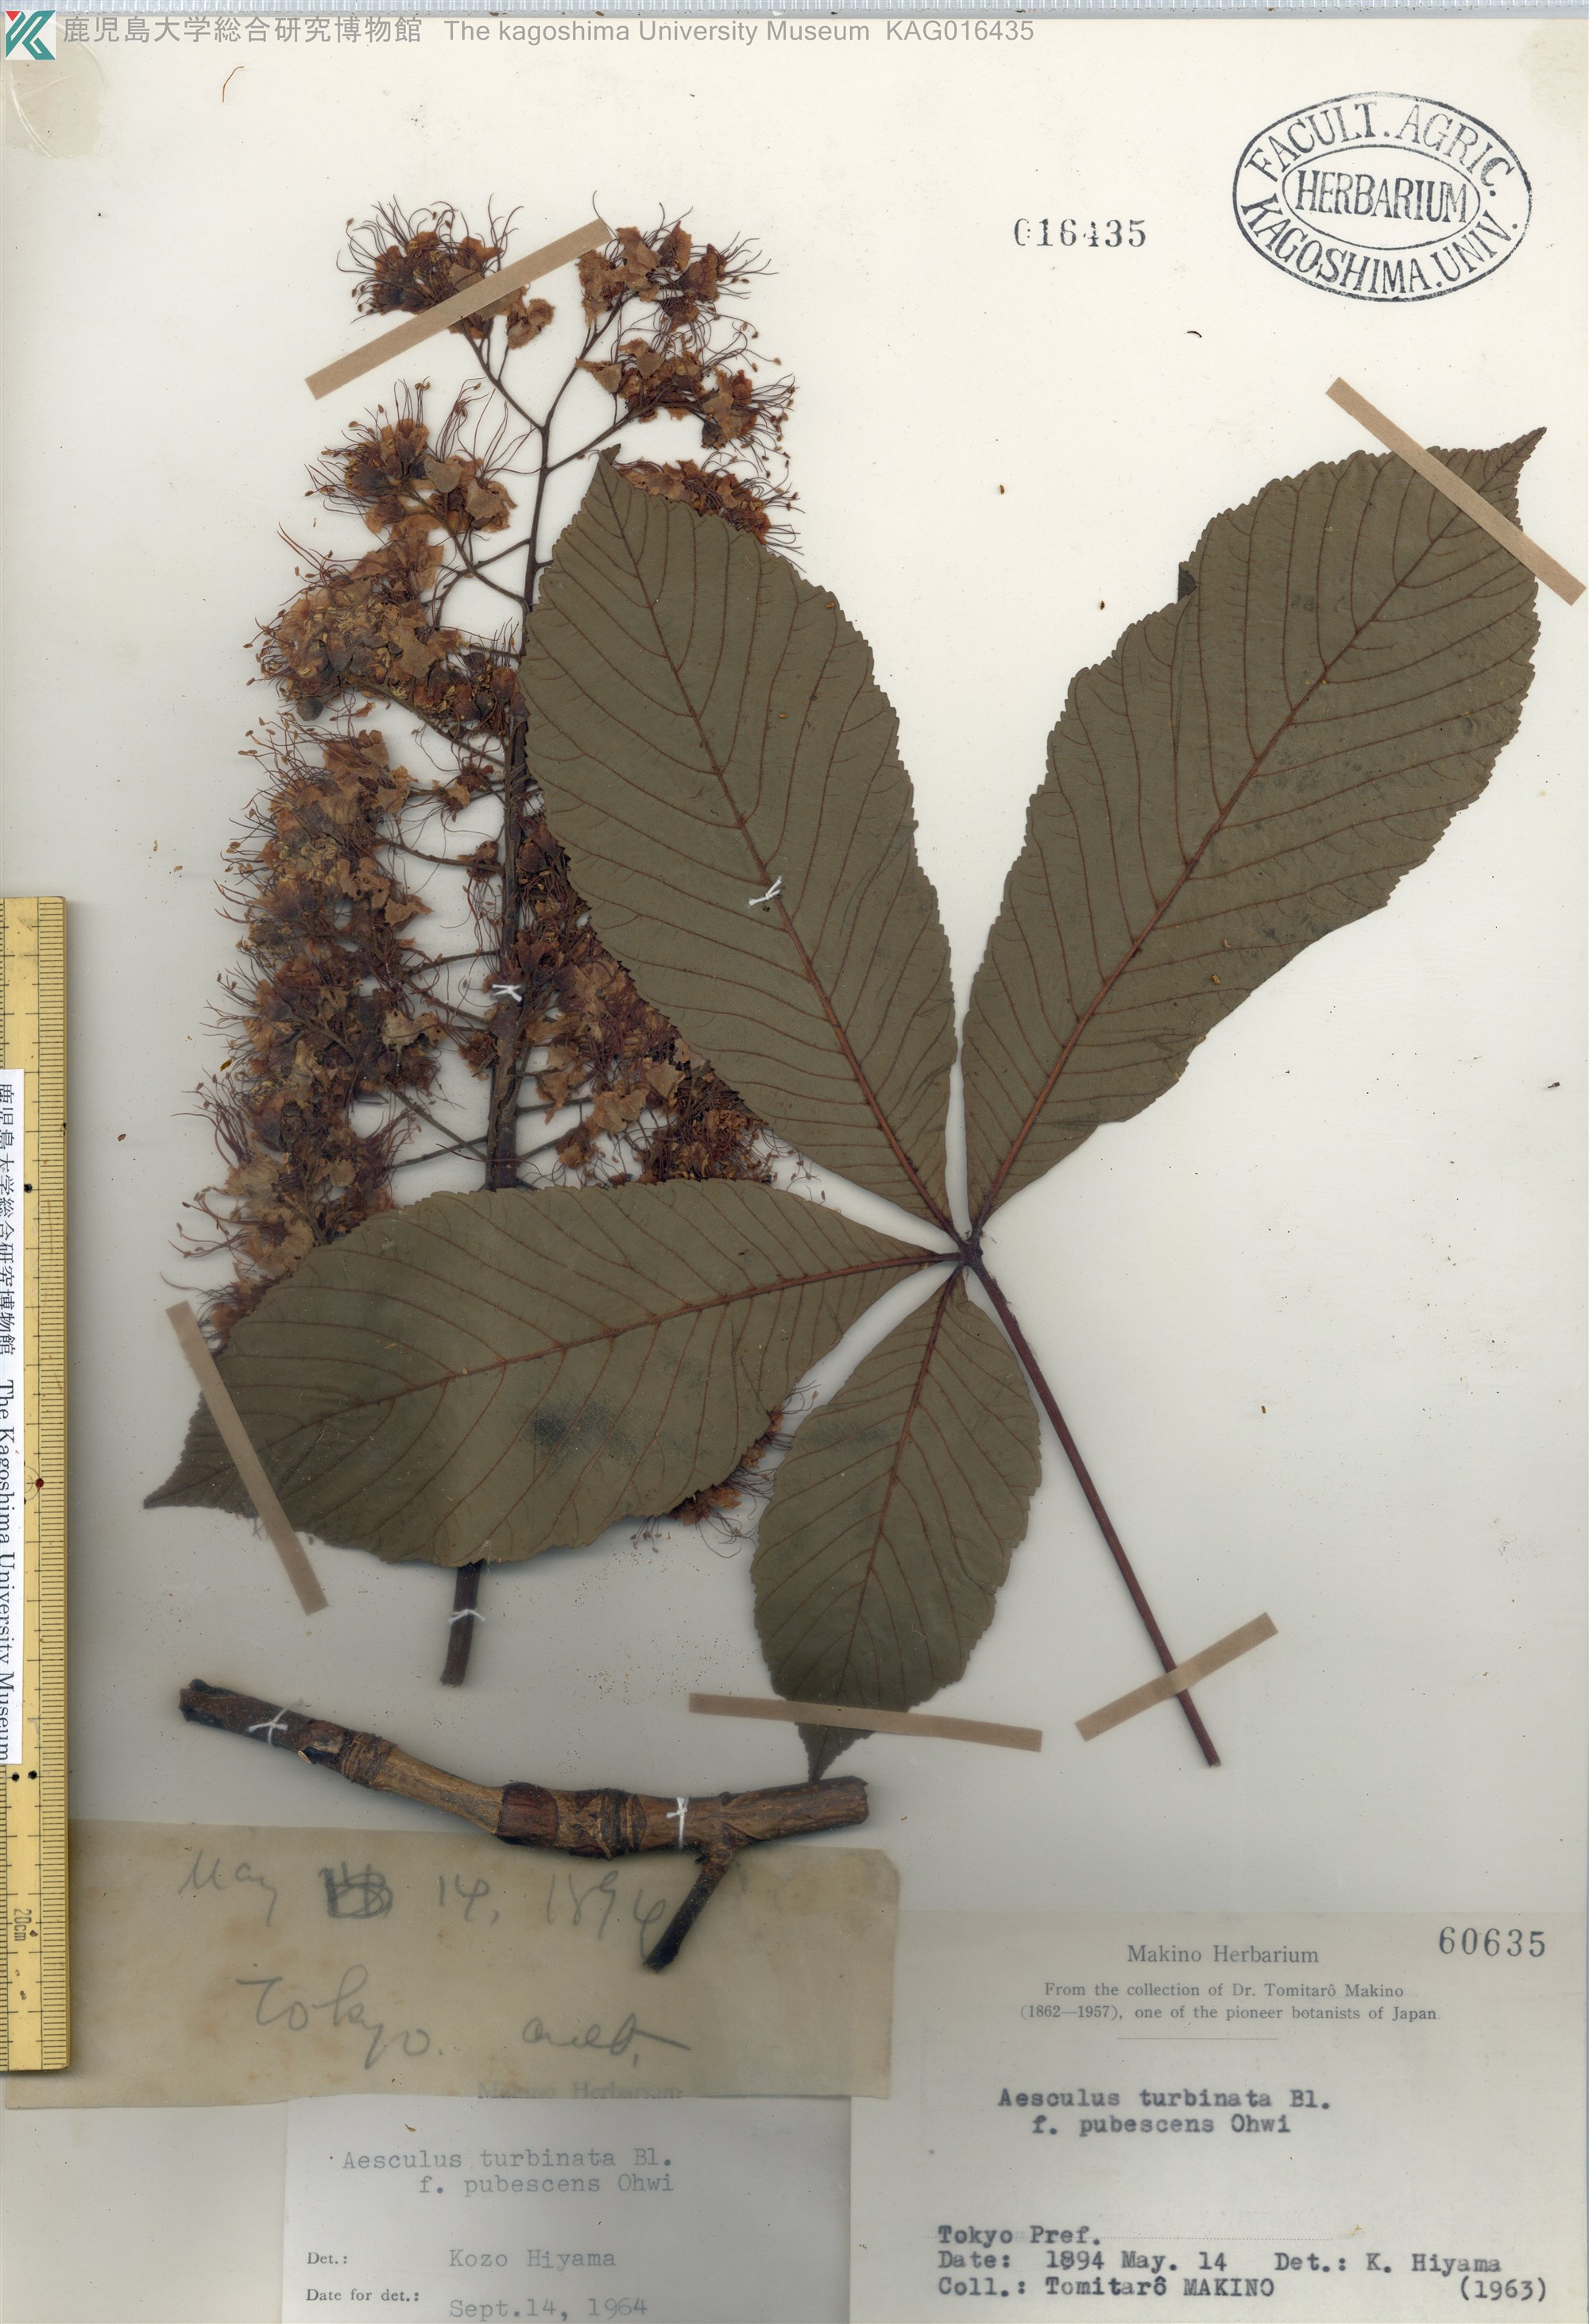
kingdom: Plantae
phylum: Tracheophyta
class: Magnoliopsida
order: Sapindales
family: Sapindaceae
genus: Aesculus
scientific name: Aesculus turbinata
